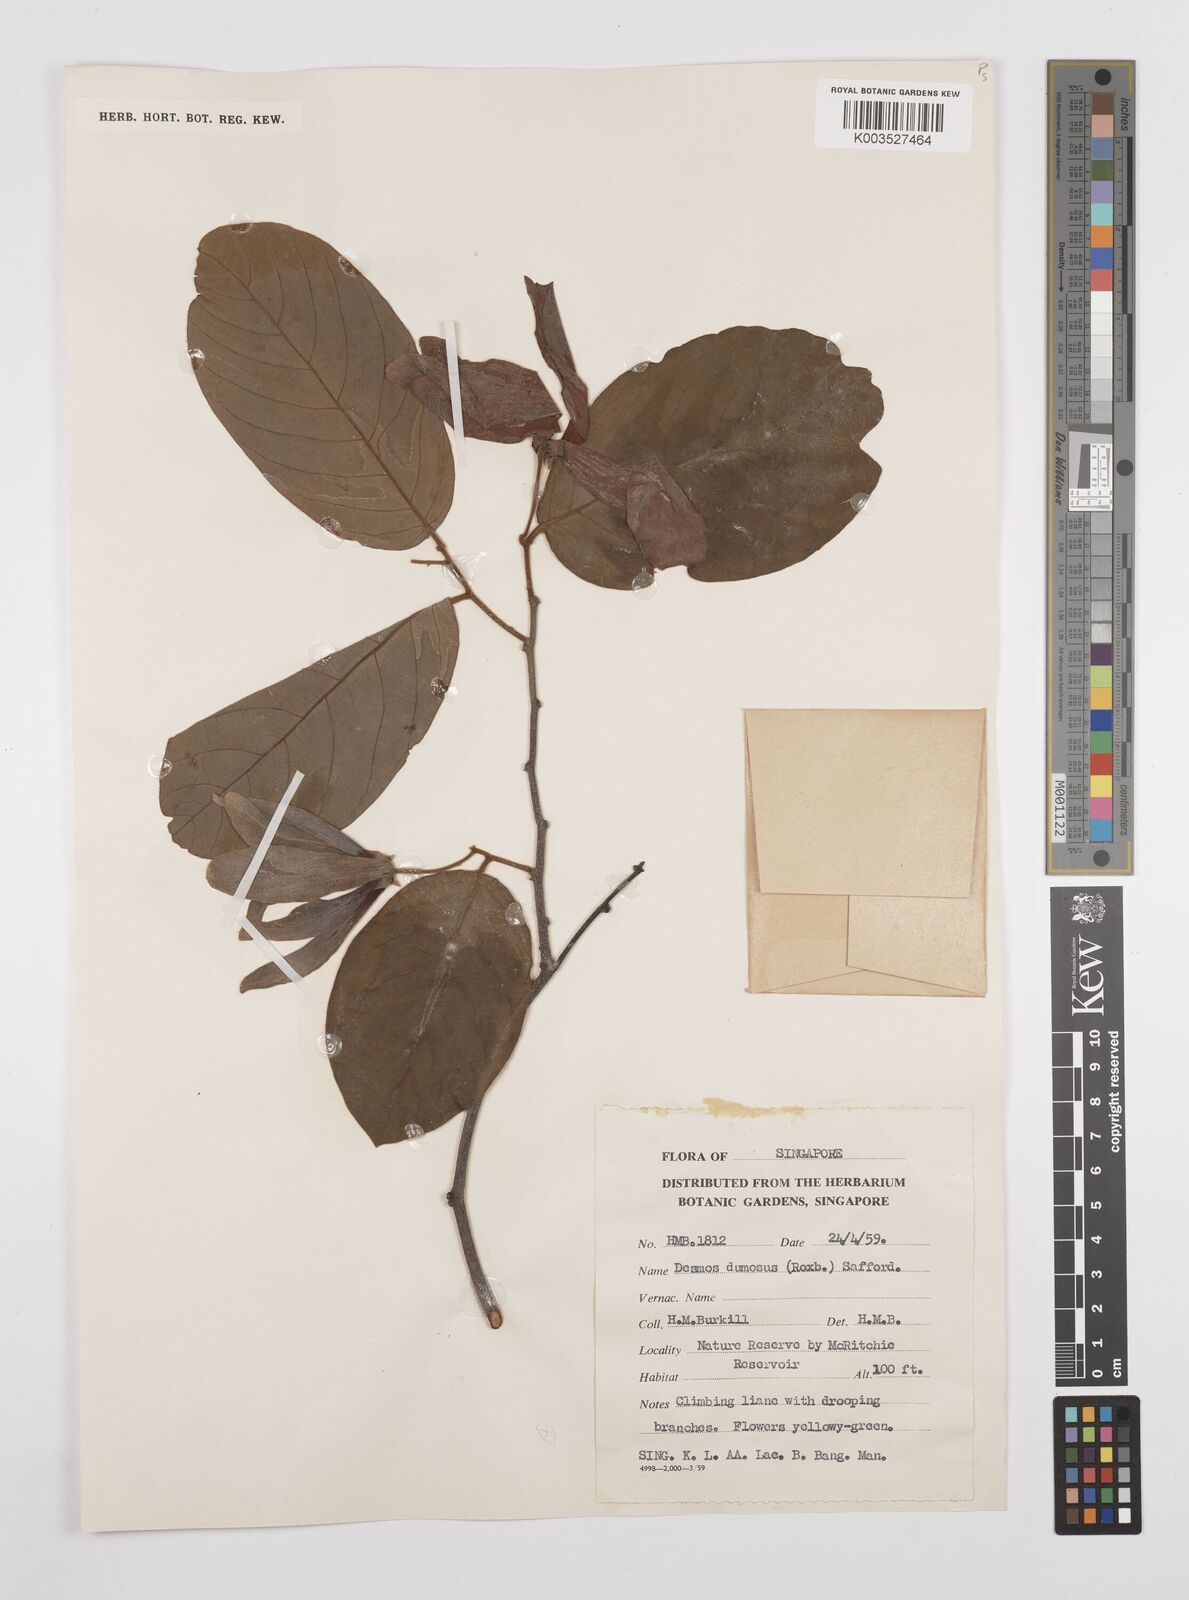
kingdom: Plantae
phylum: Tracheophyta
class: Magnoliopsida
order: Magnoliales
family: Annonaceae
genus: Desmos
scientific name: Desmos dumosus
